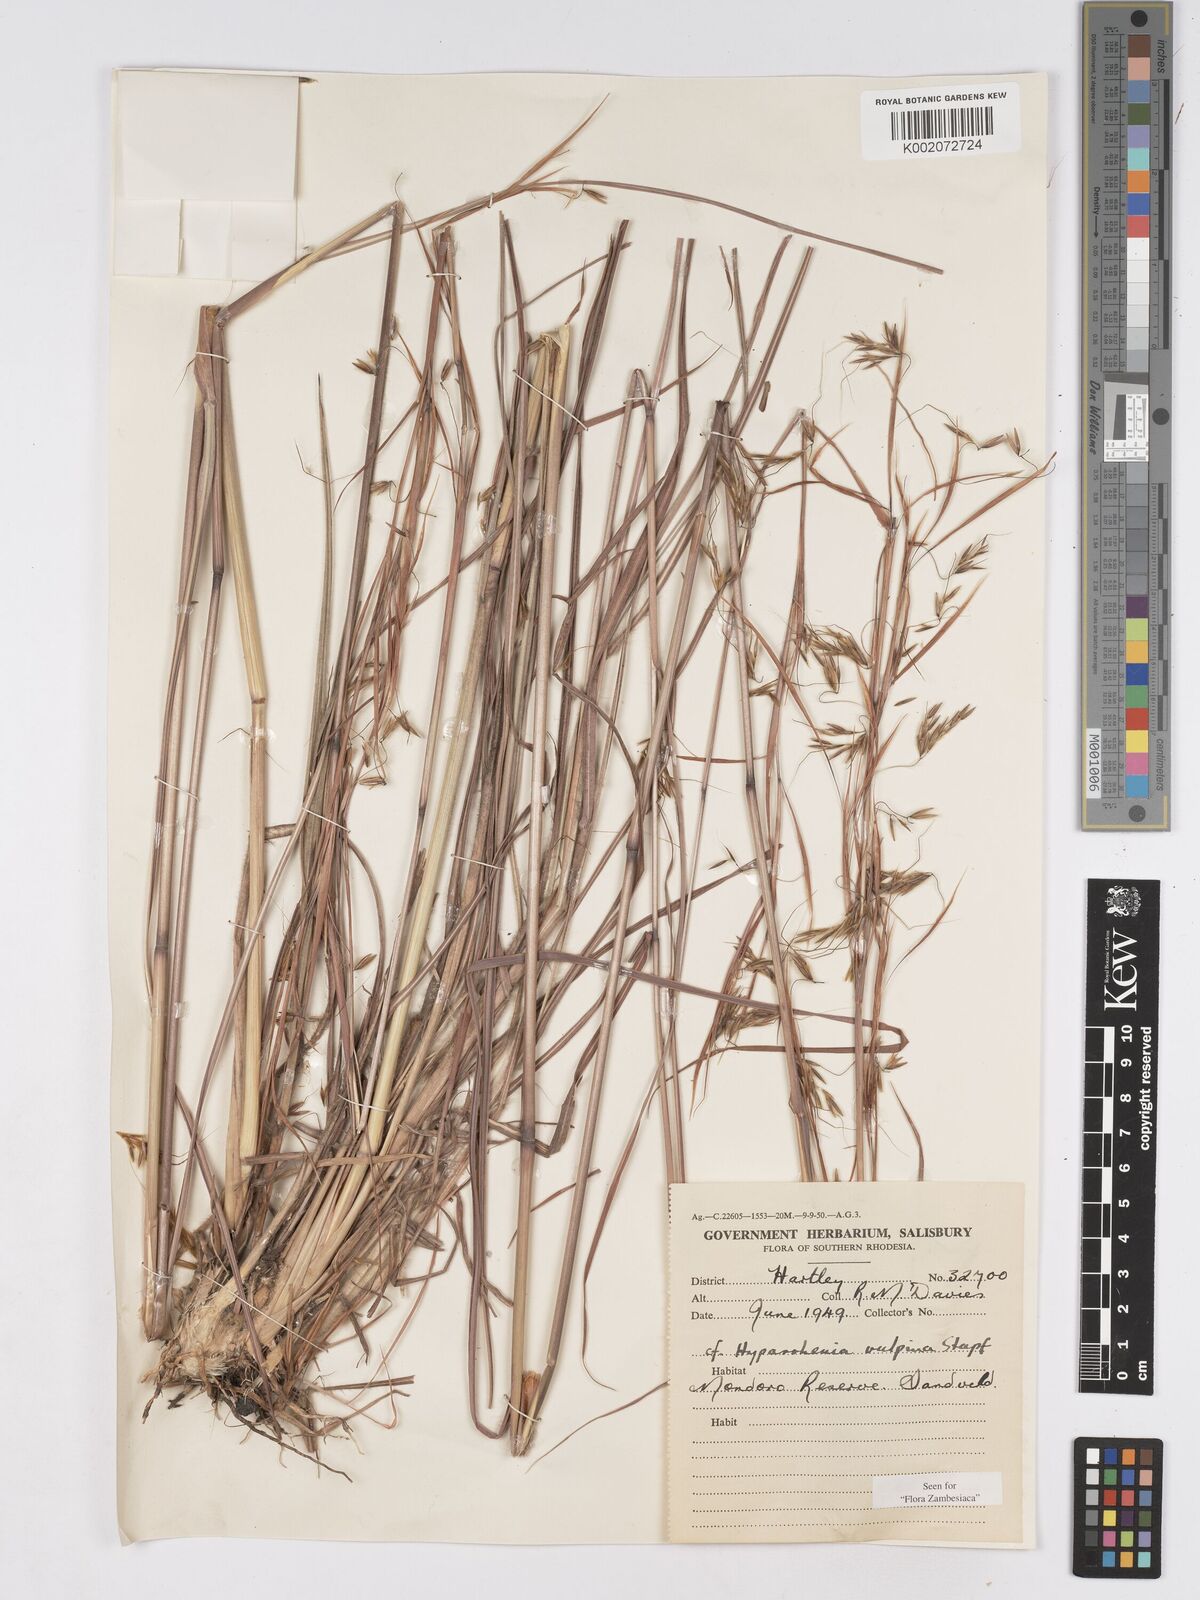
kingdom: Plantae
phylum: Tracheophyta
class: Liliopsida
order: Poales
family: Poaceae
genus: Hyparrhenia
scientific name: Hyparrhenia nyassae
